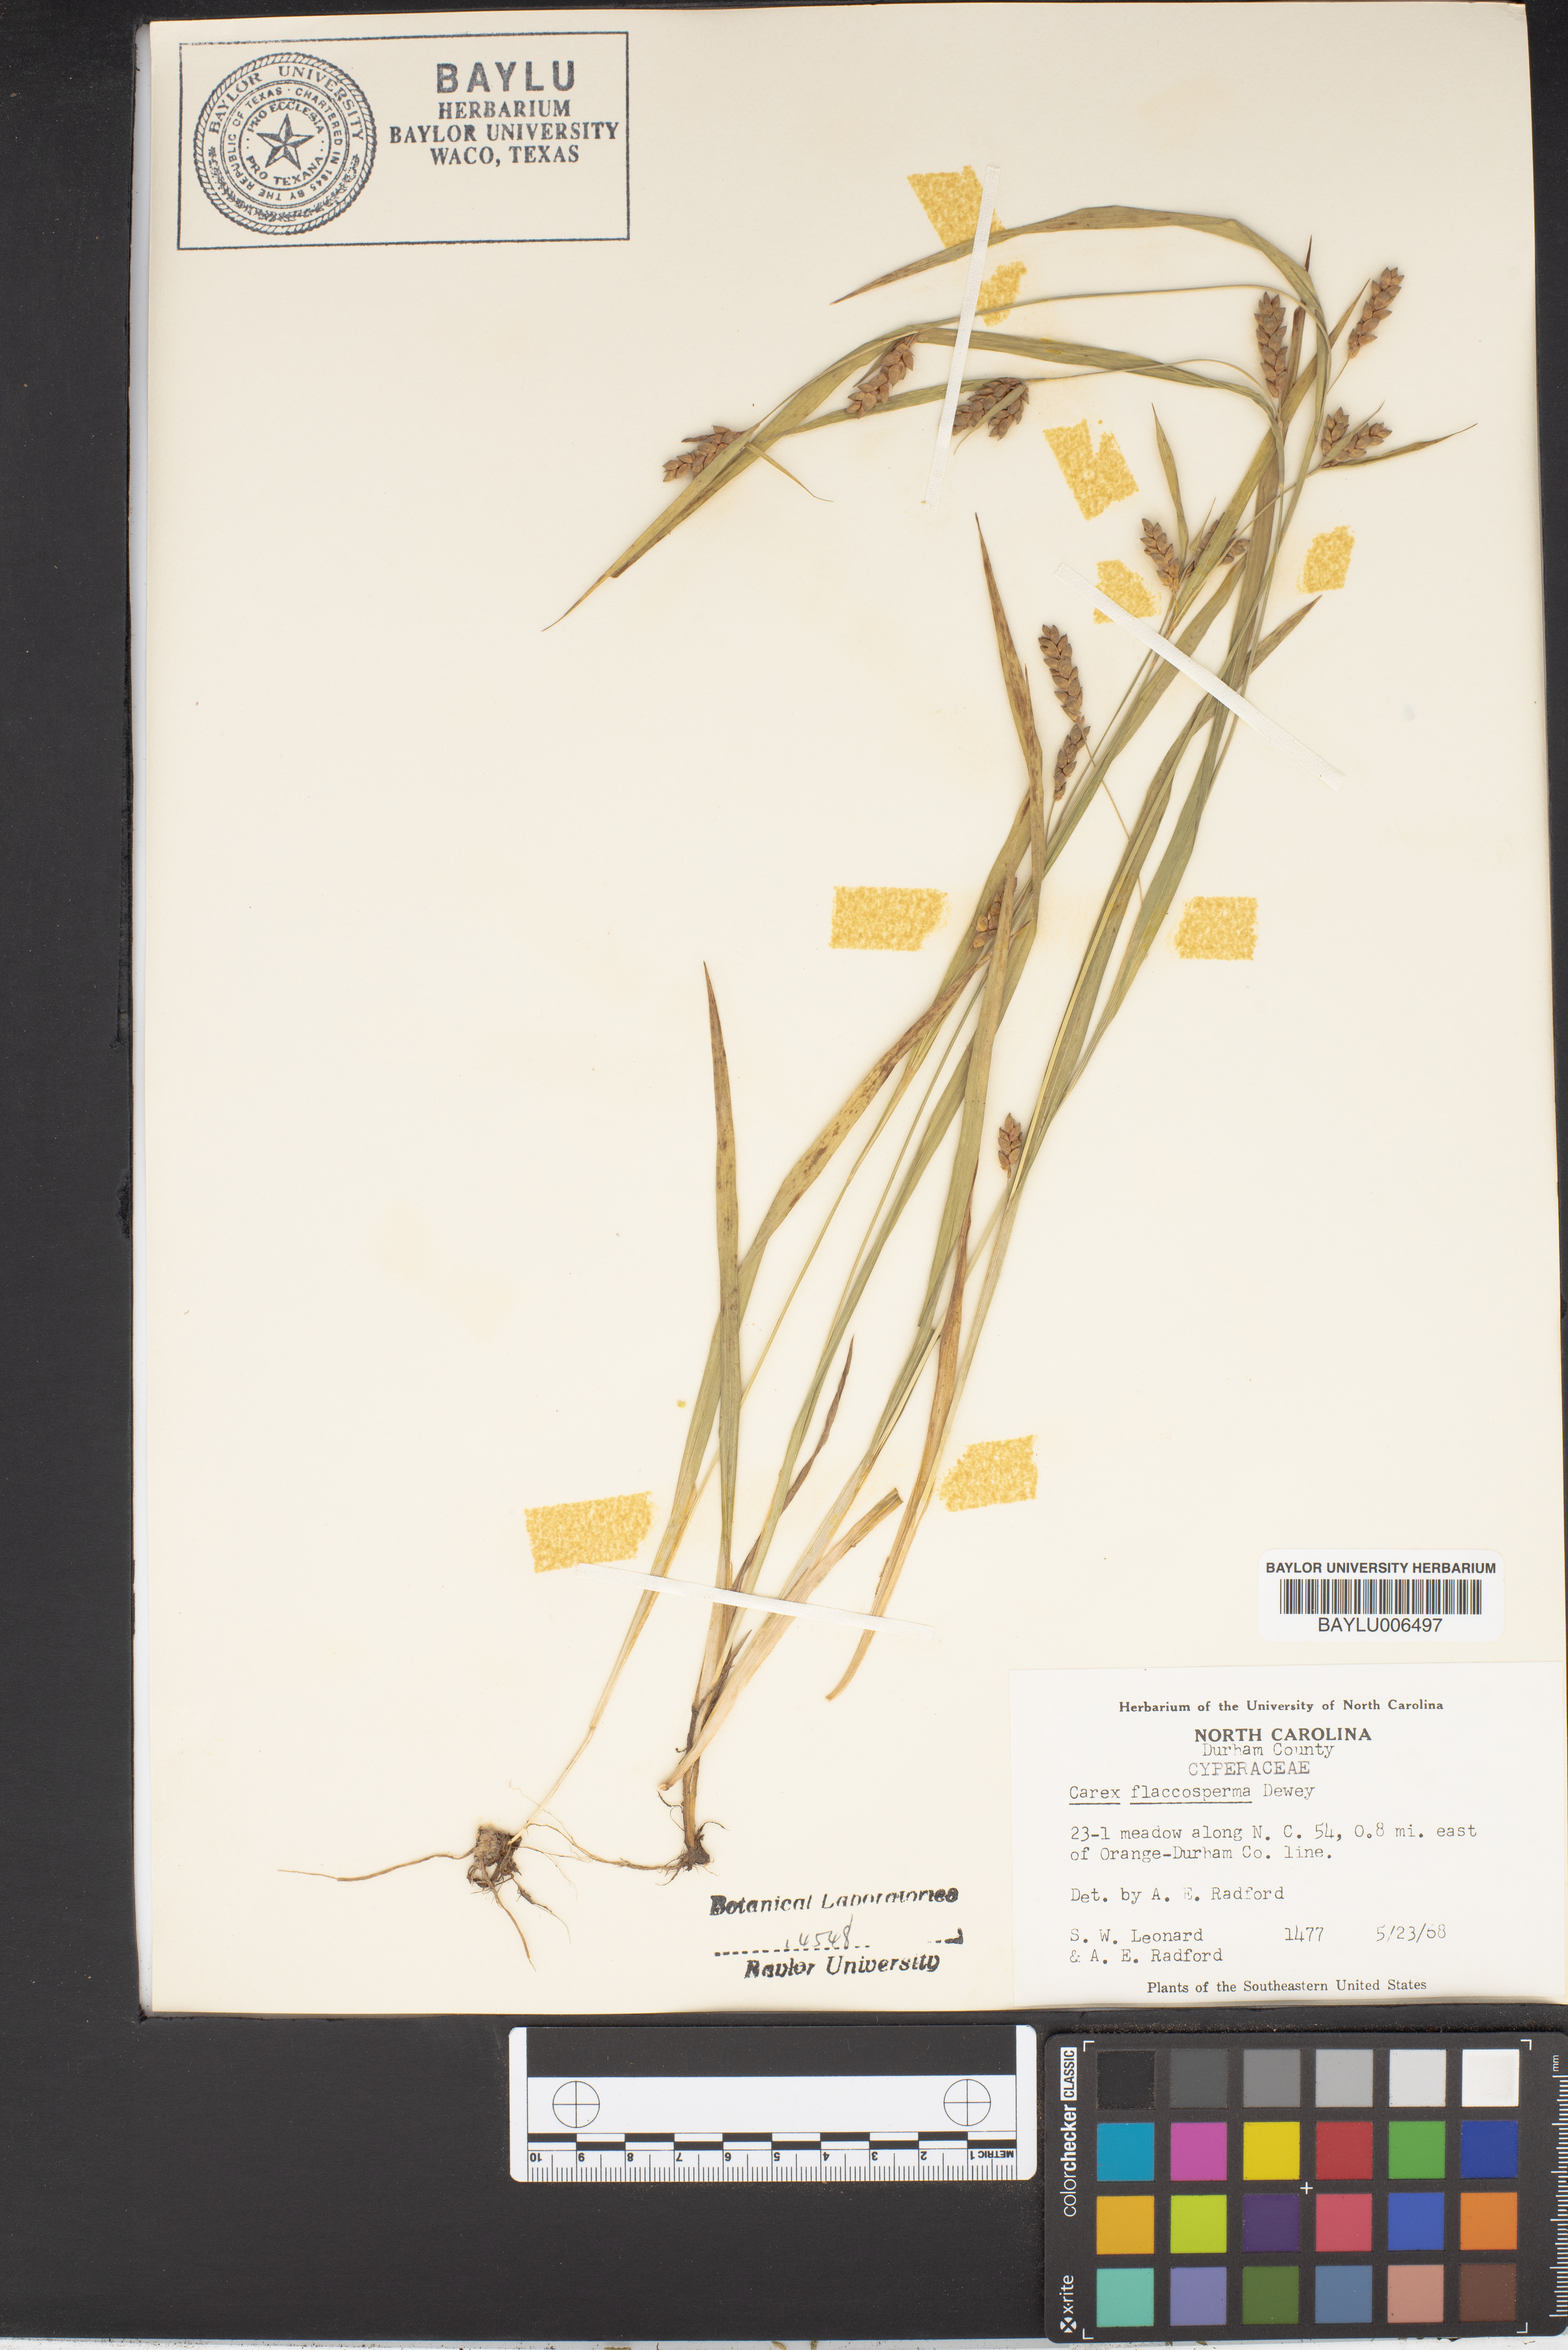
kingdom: Plantae
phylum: Tracheophyta
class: Liliopsida
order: Poales
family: Cyperaceae
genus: Carex
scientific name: Carex flaccosperma
